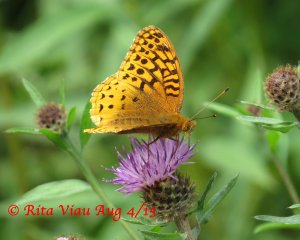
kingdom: Animalia
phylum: Arthropoda
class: Insecta
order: Lepidoptera
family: Nymphalidae
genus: Speyeria
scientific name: Speyeria cybele
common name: Great Spangled Fritillary
